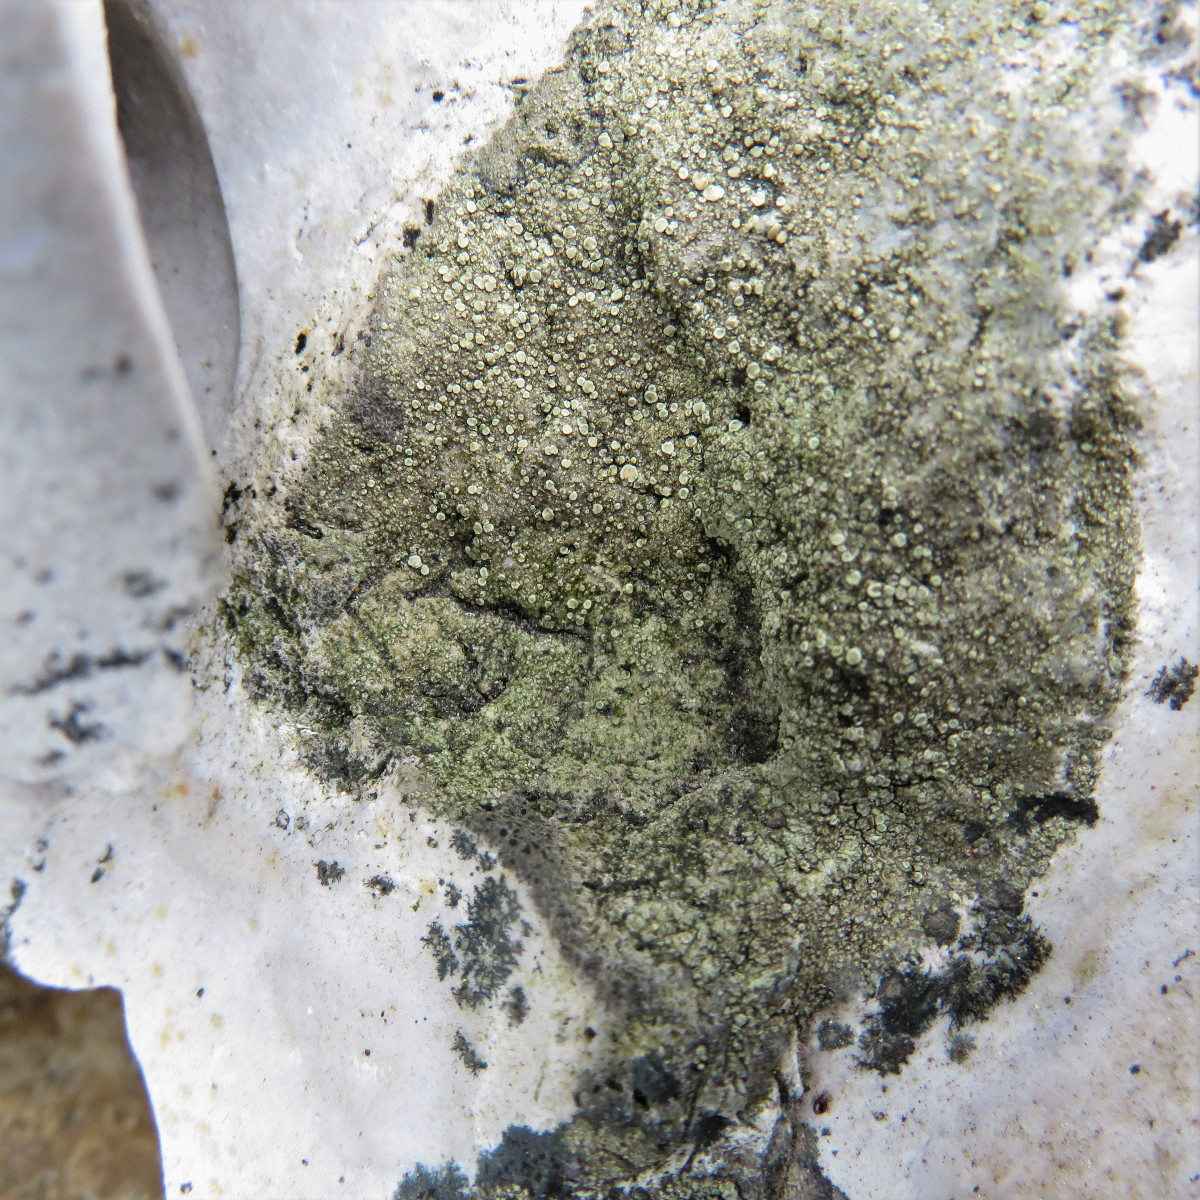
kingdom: Fungi
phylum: Ascomycota
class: Lecanoromycetes
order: Lecanorales
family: Lecanoraceae
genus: Lecanora
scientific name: Lecanora polytropa
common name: bleggrøn kantskivelav
